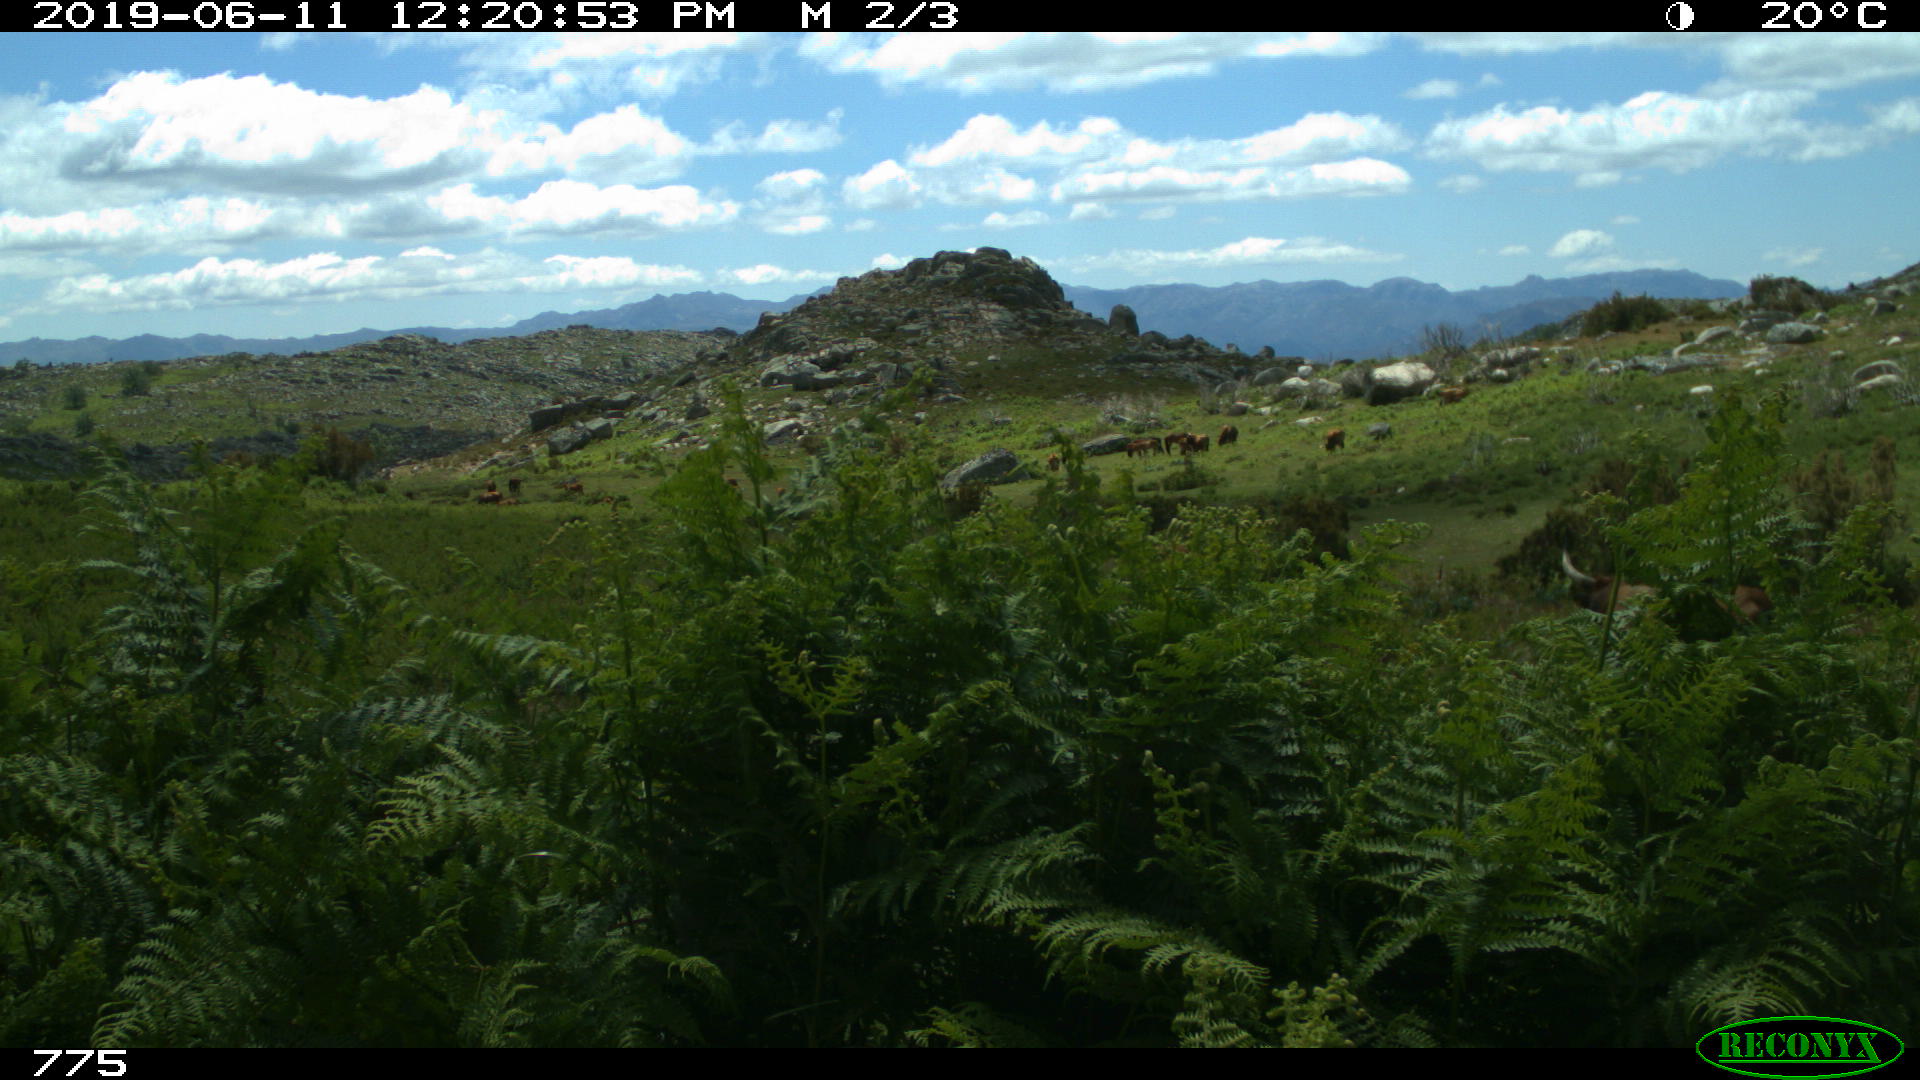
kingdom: Animalia
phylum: Chordata
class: Mammalia
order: Artiodactyla
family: Bovidae
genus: Bos
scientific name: Bos taurus
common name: Domesticated cattle
